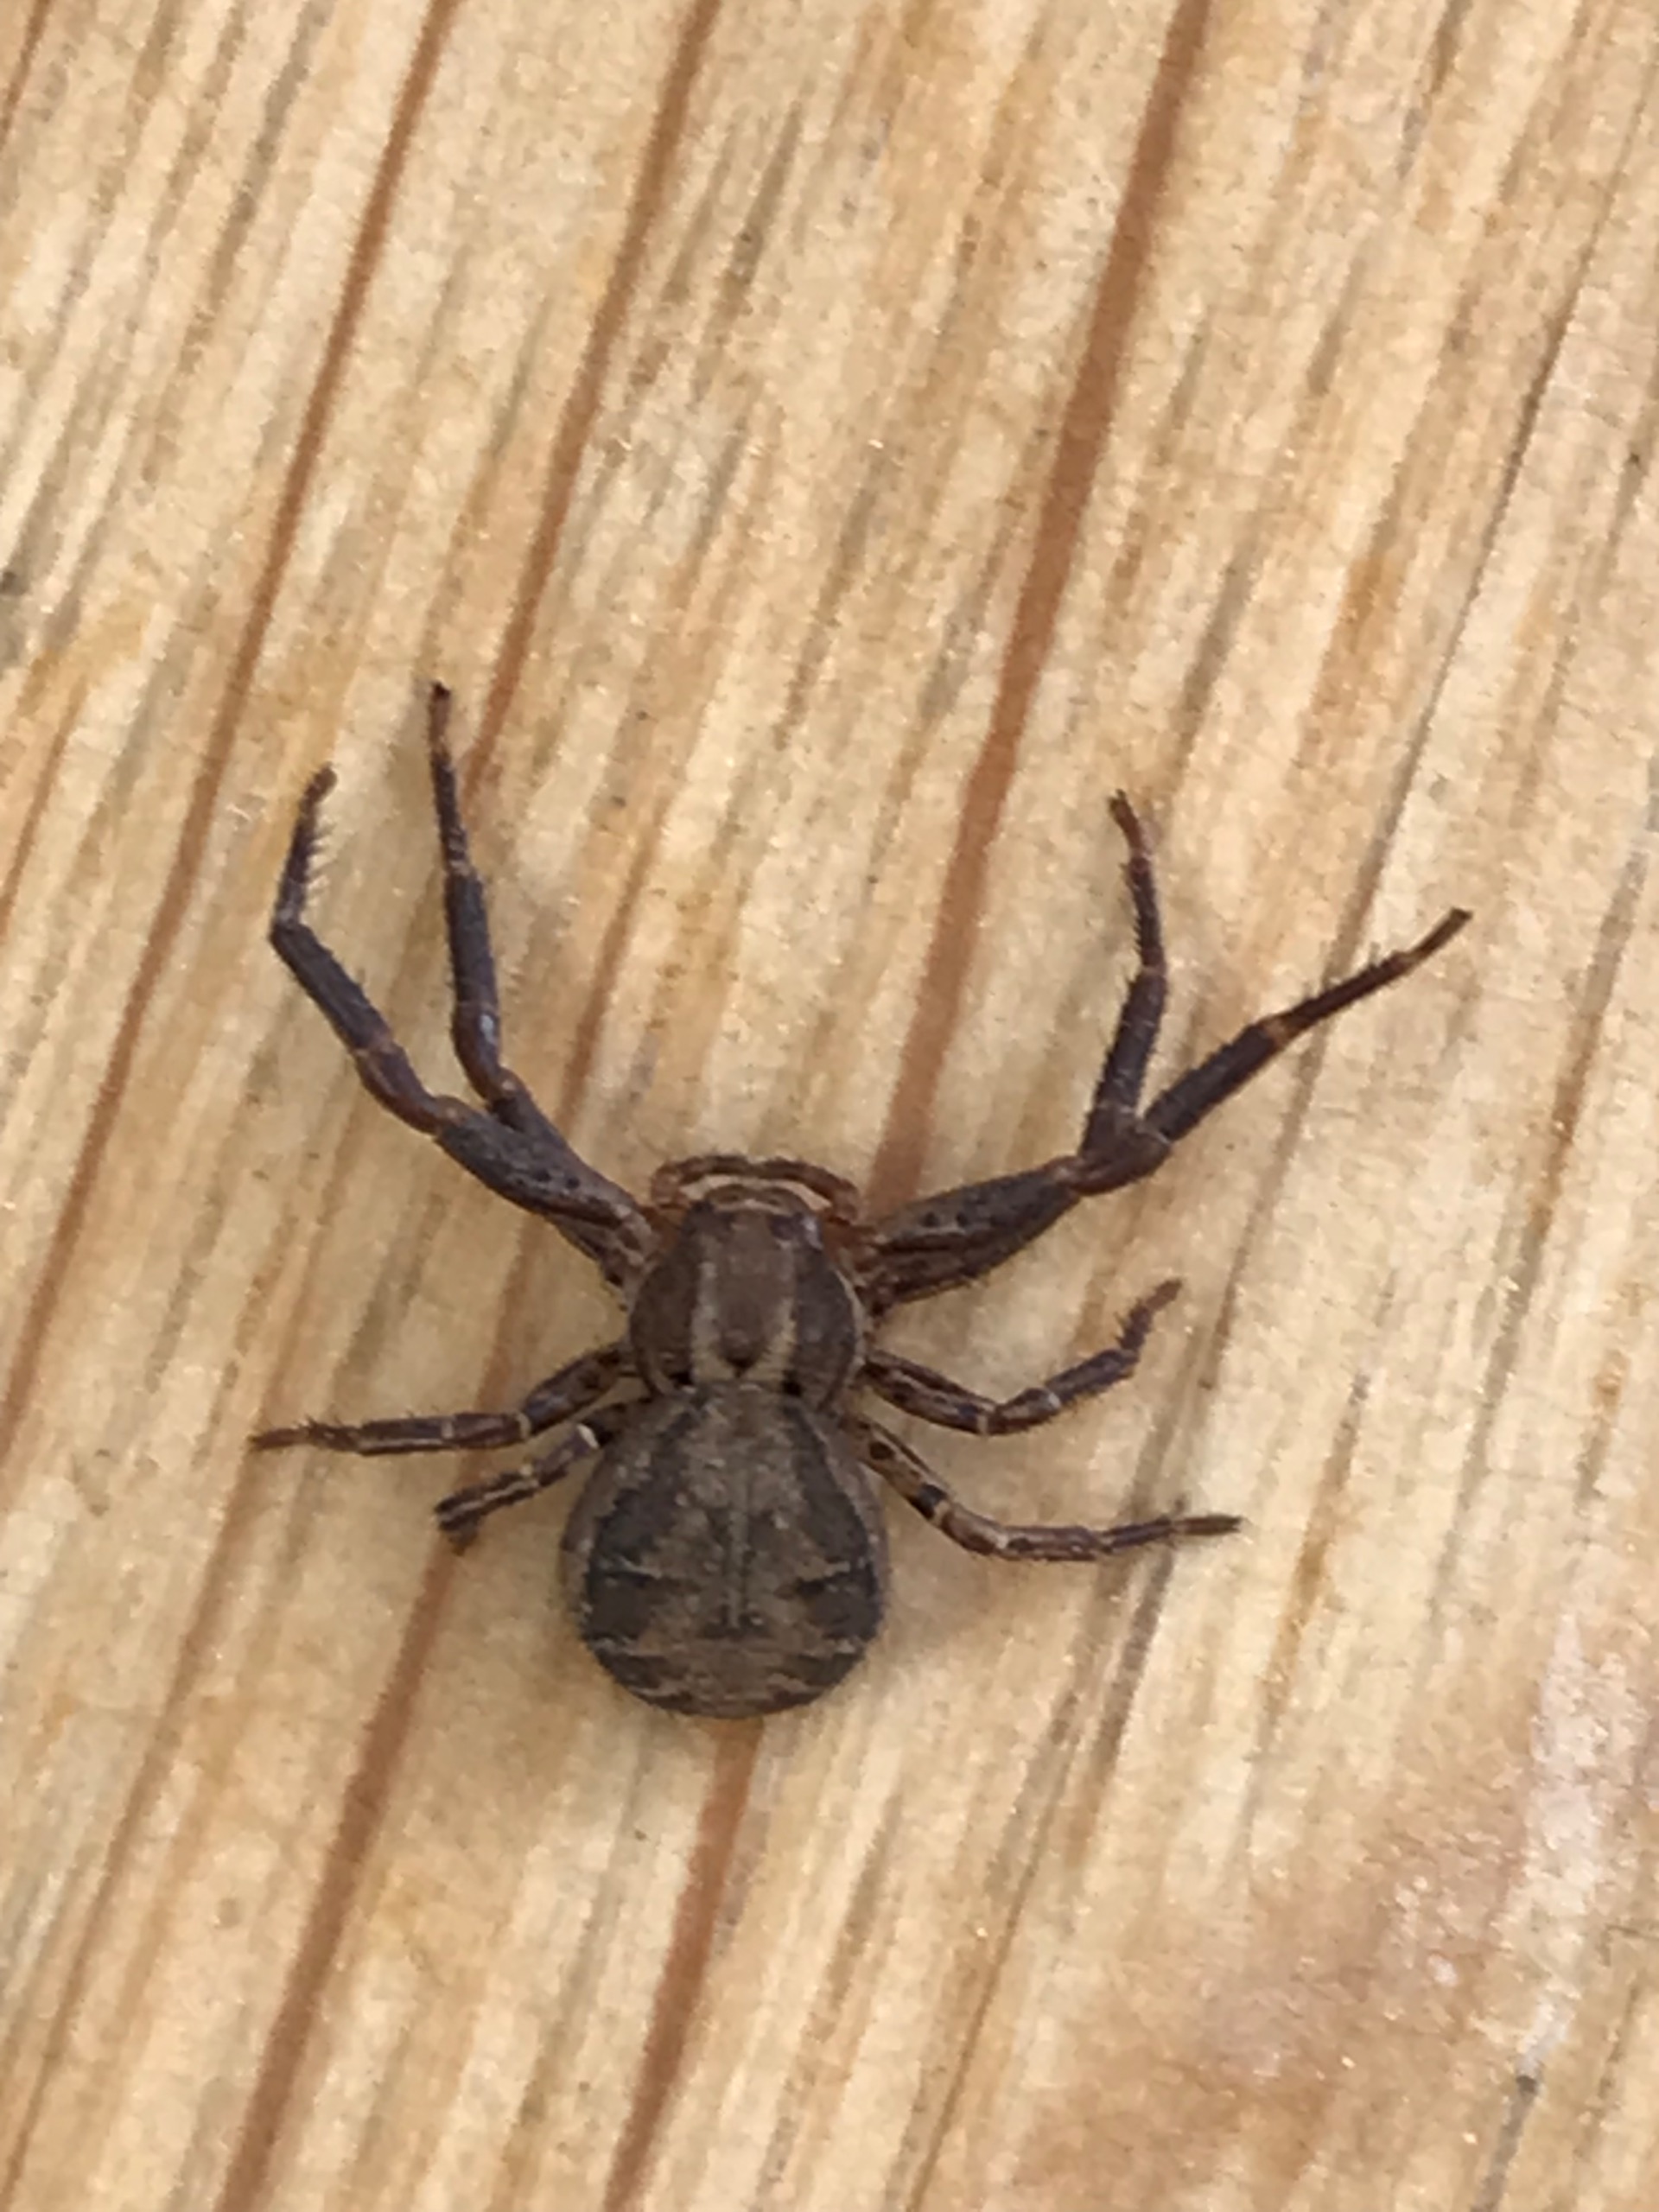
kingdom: Animalia
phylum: Arthropoda
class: Arachnida
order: Araneae
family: Thomisidae
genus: Xysticus
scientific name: Xysticus
